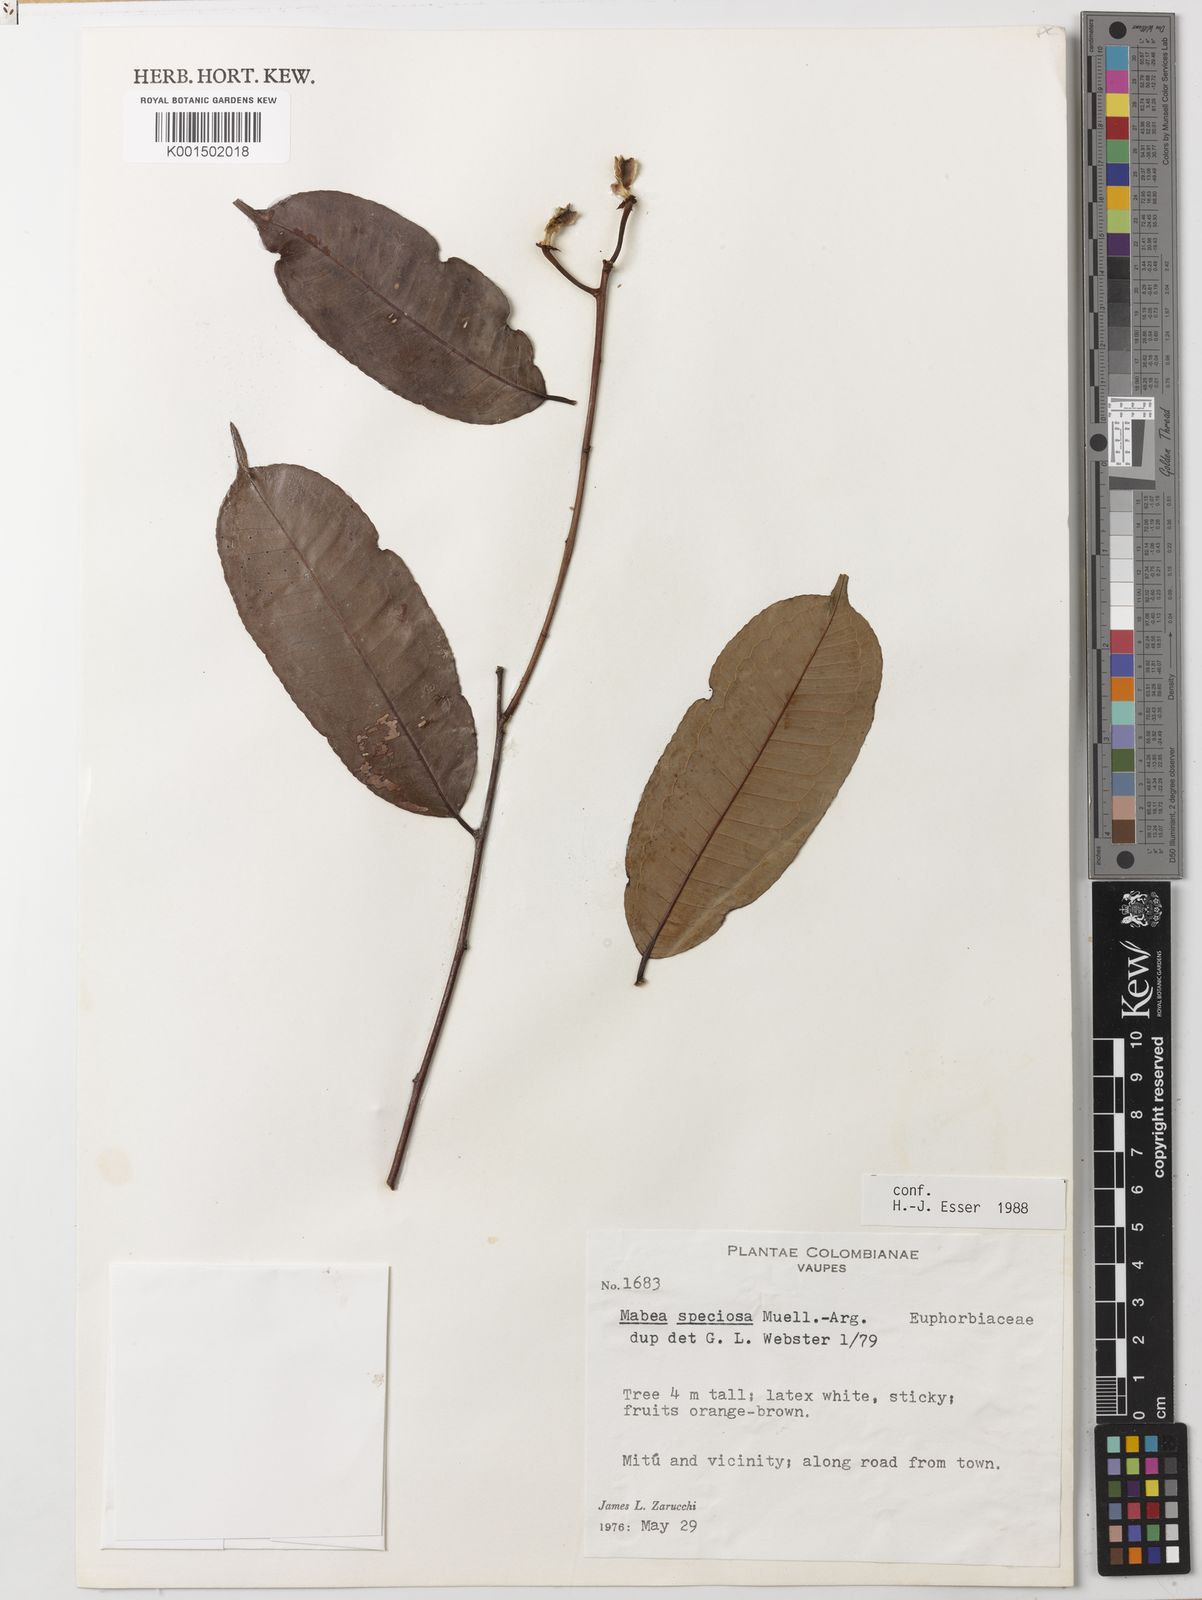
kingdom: Plantae
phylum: Tracheophyta
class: Magnoliopsida
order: Malpighiales
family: Euphorbiaceae
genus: Mabea
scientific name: Mabea speciosa
